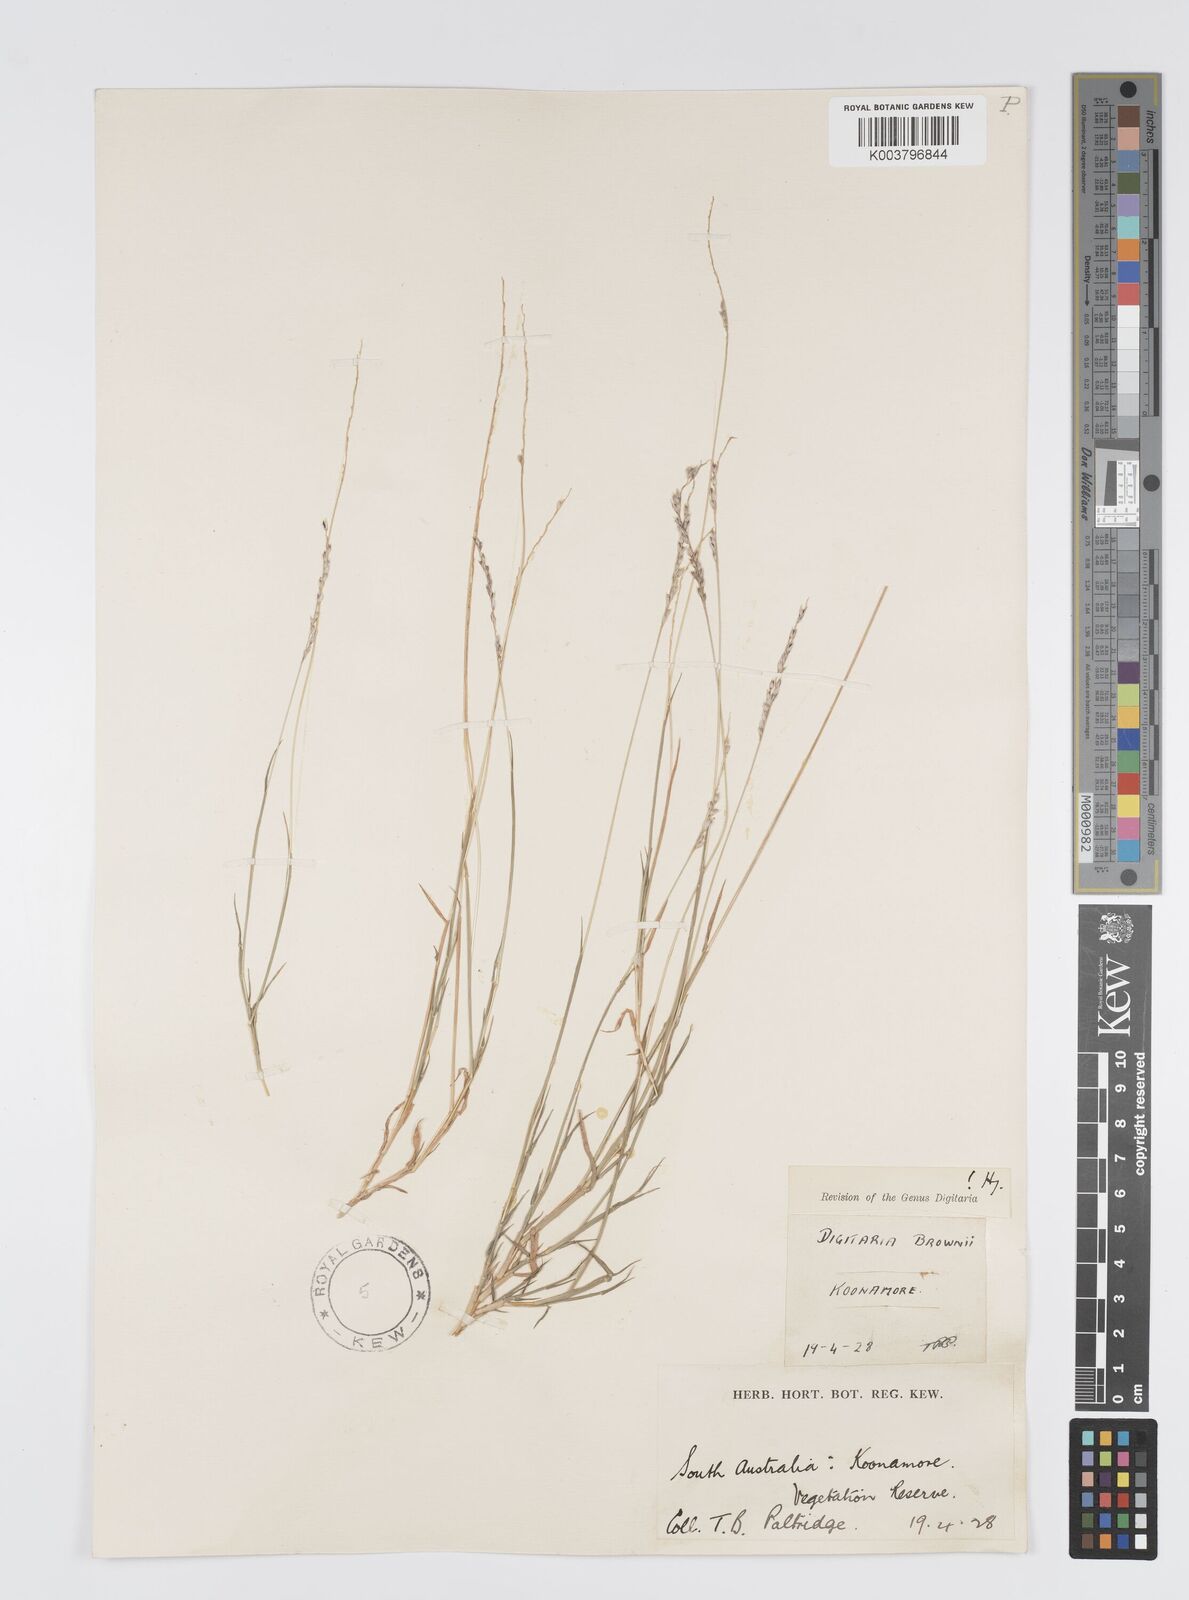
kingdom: Plantae
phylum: Tracheophyta
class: Liliopsida
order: Poales
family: Poaceae
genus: Digitaria
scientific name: Digitaria brownii
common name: Cotton grass
